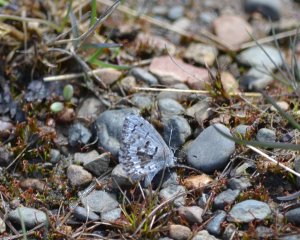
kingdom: Animalia
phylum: Arthropoda
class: Insecta
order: Lepidoptera
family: Lycaenidae
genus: Celastrina
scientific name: Celastrina lucia
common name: Northern Spring Azure
